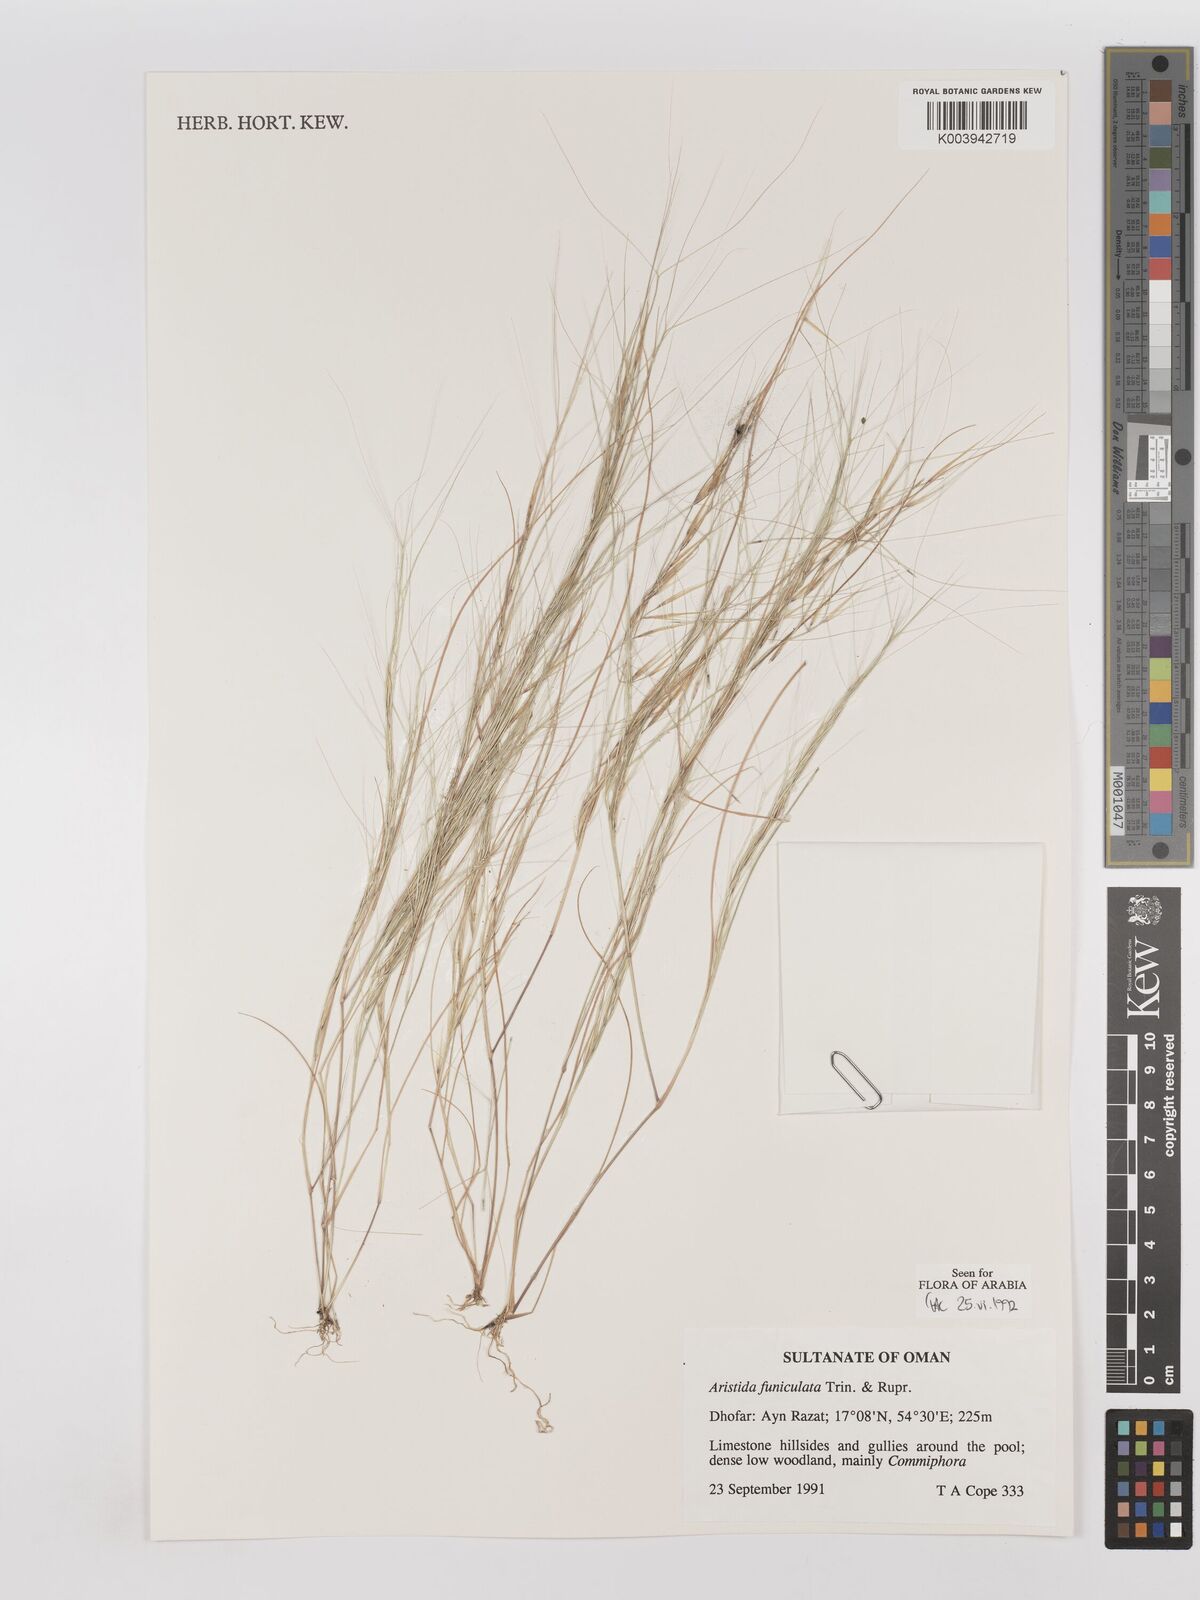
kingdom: Plantae
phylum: Tracheophyta
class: Liliopsida
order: Poales
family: Poaceae
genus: Aristida
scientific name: Aristida funiculata
